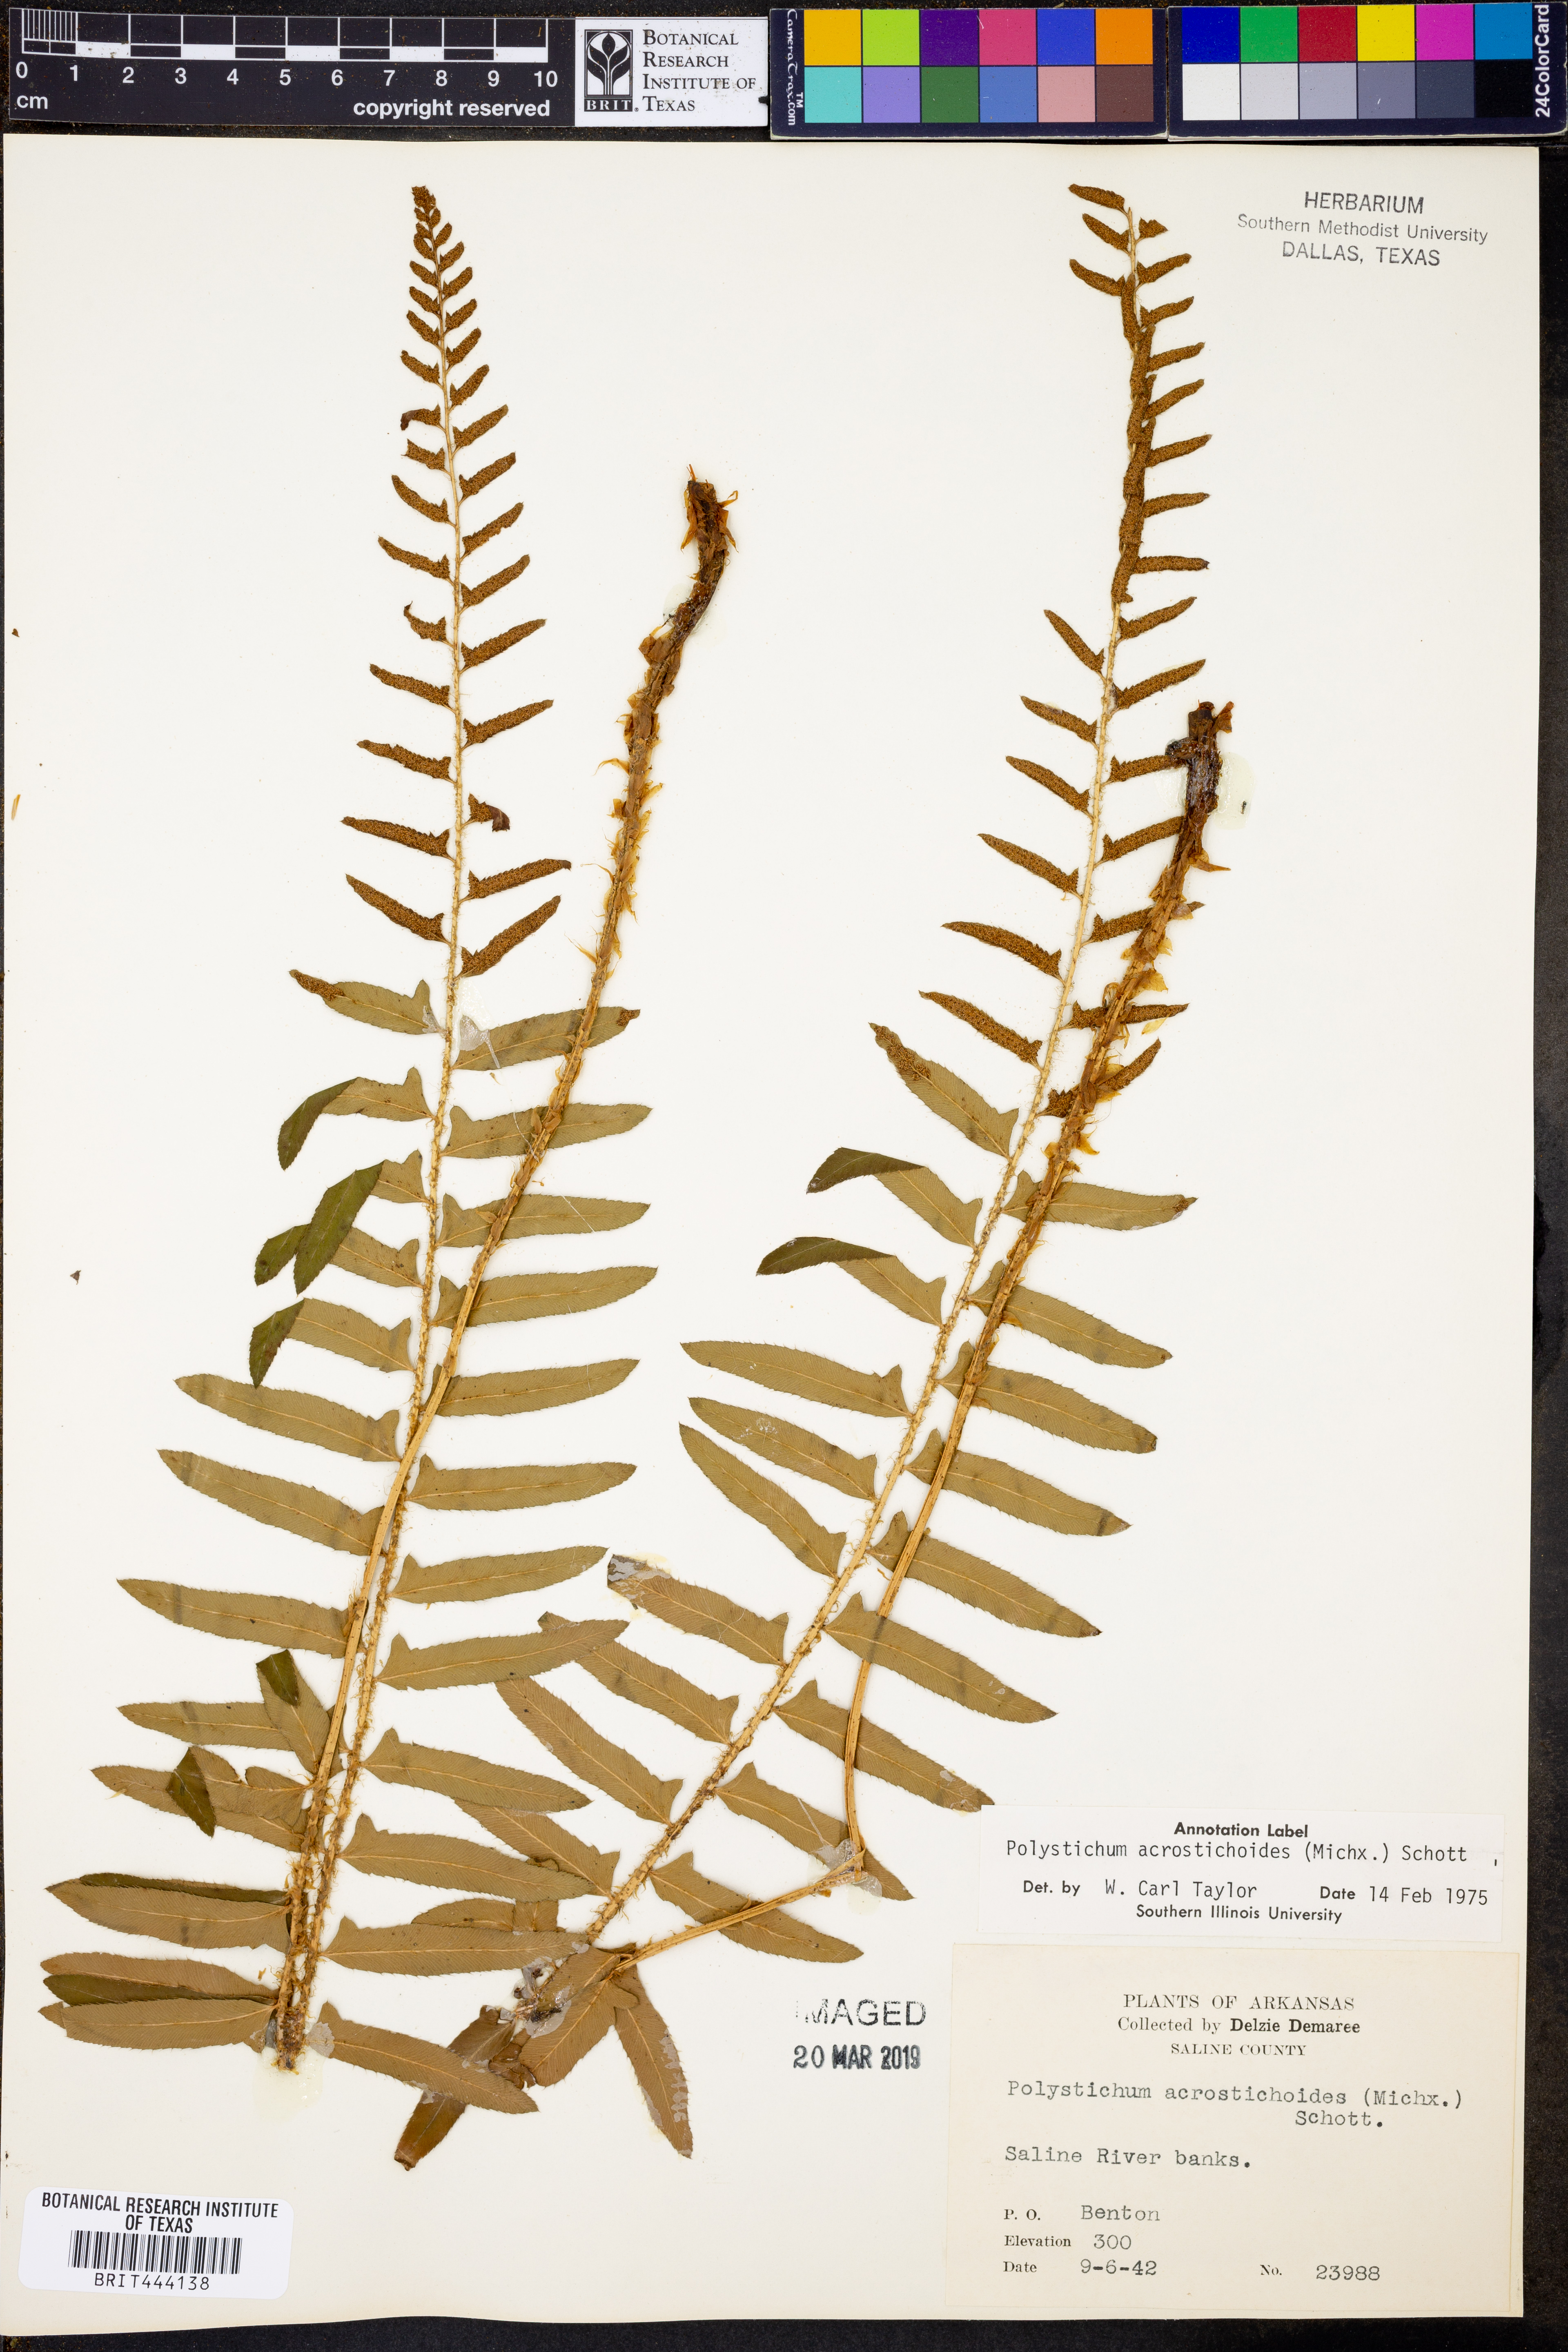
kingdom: Plantae
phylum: Tracheophyta
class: Polypodiopsida
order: Polypodiales
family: Dryopteridaceae
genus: Polystichum
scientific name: Polystichum acrostichoides
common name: Christmas fern
